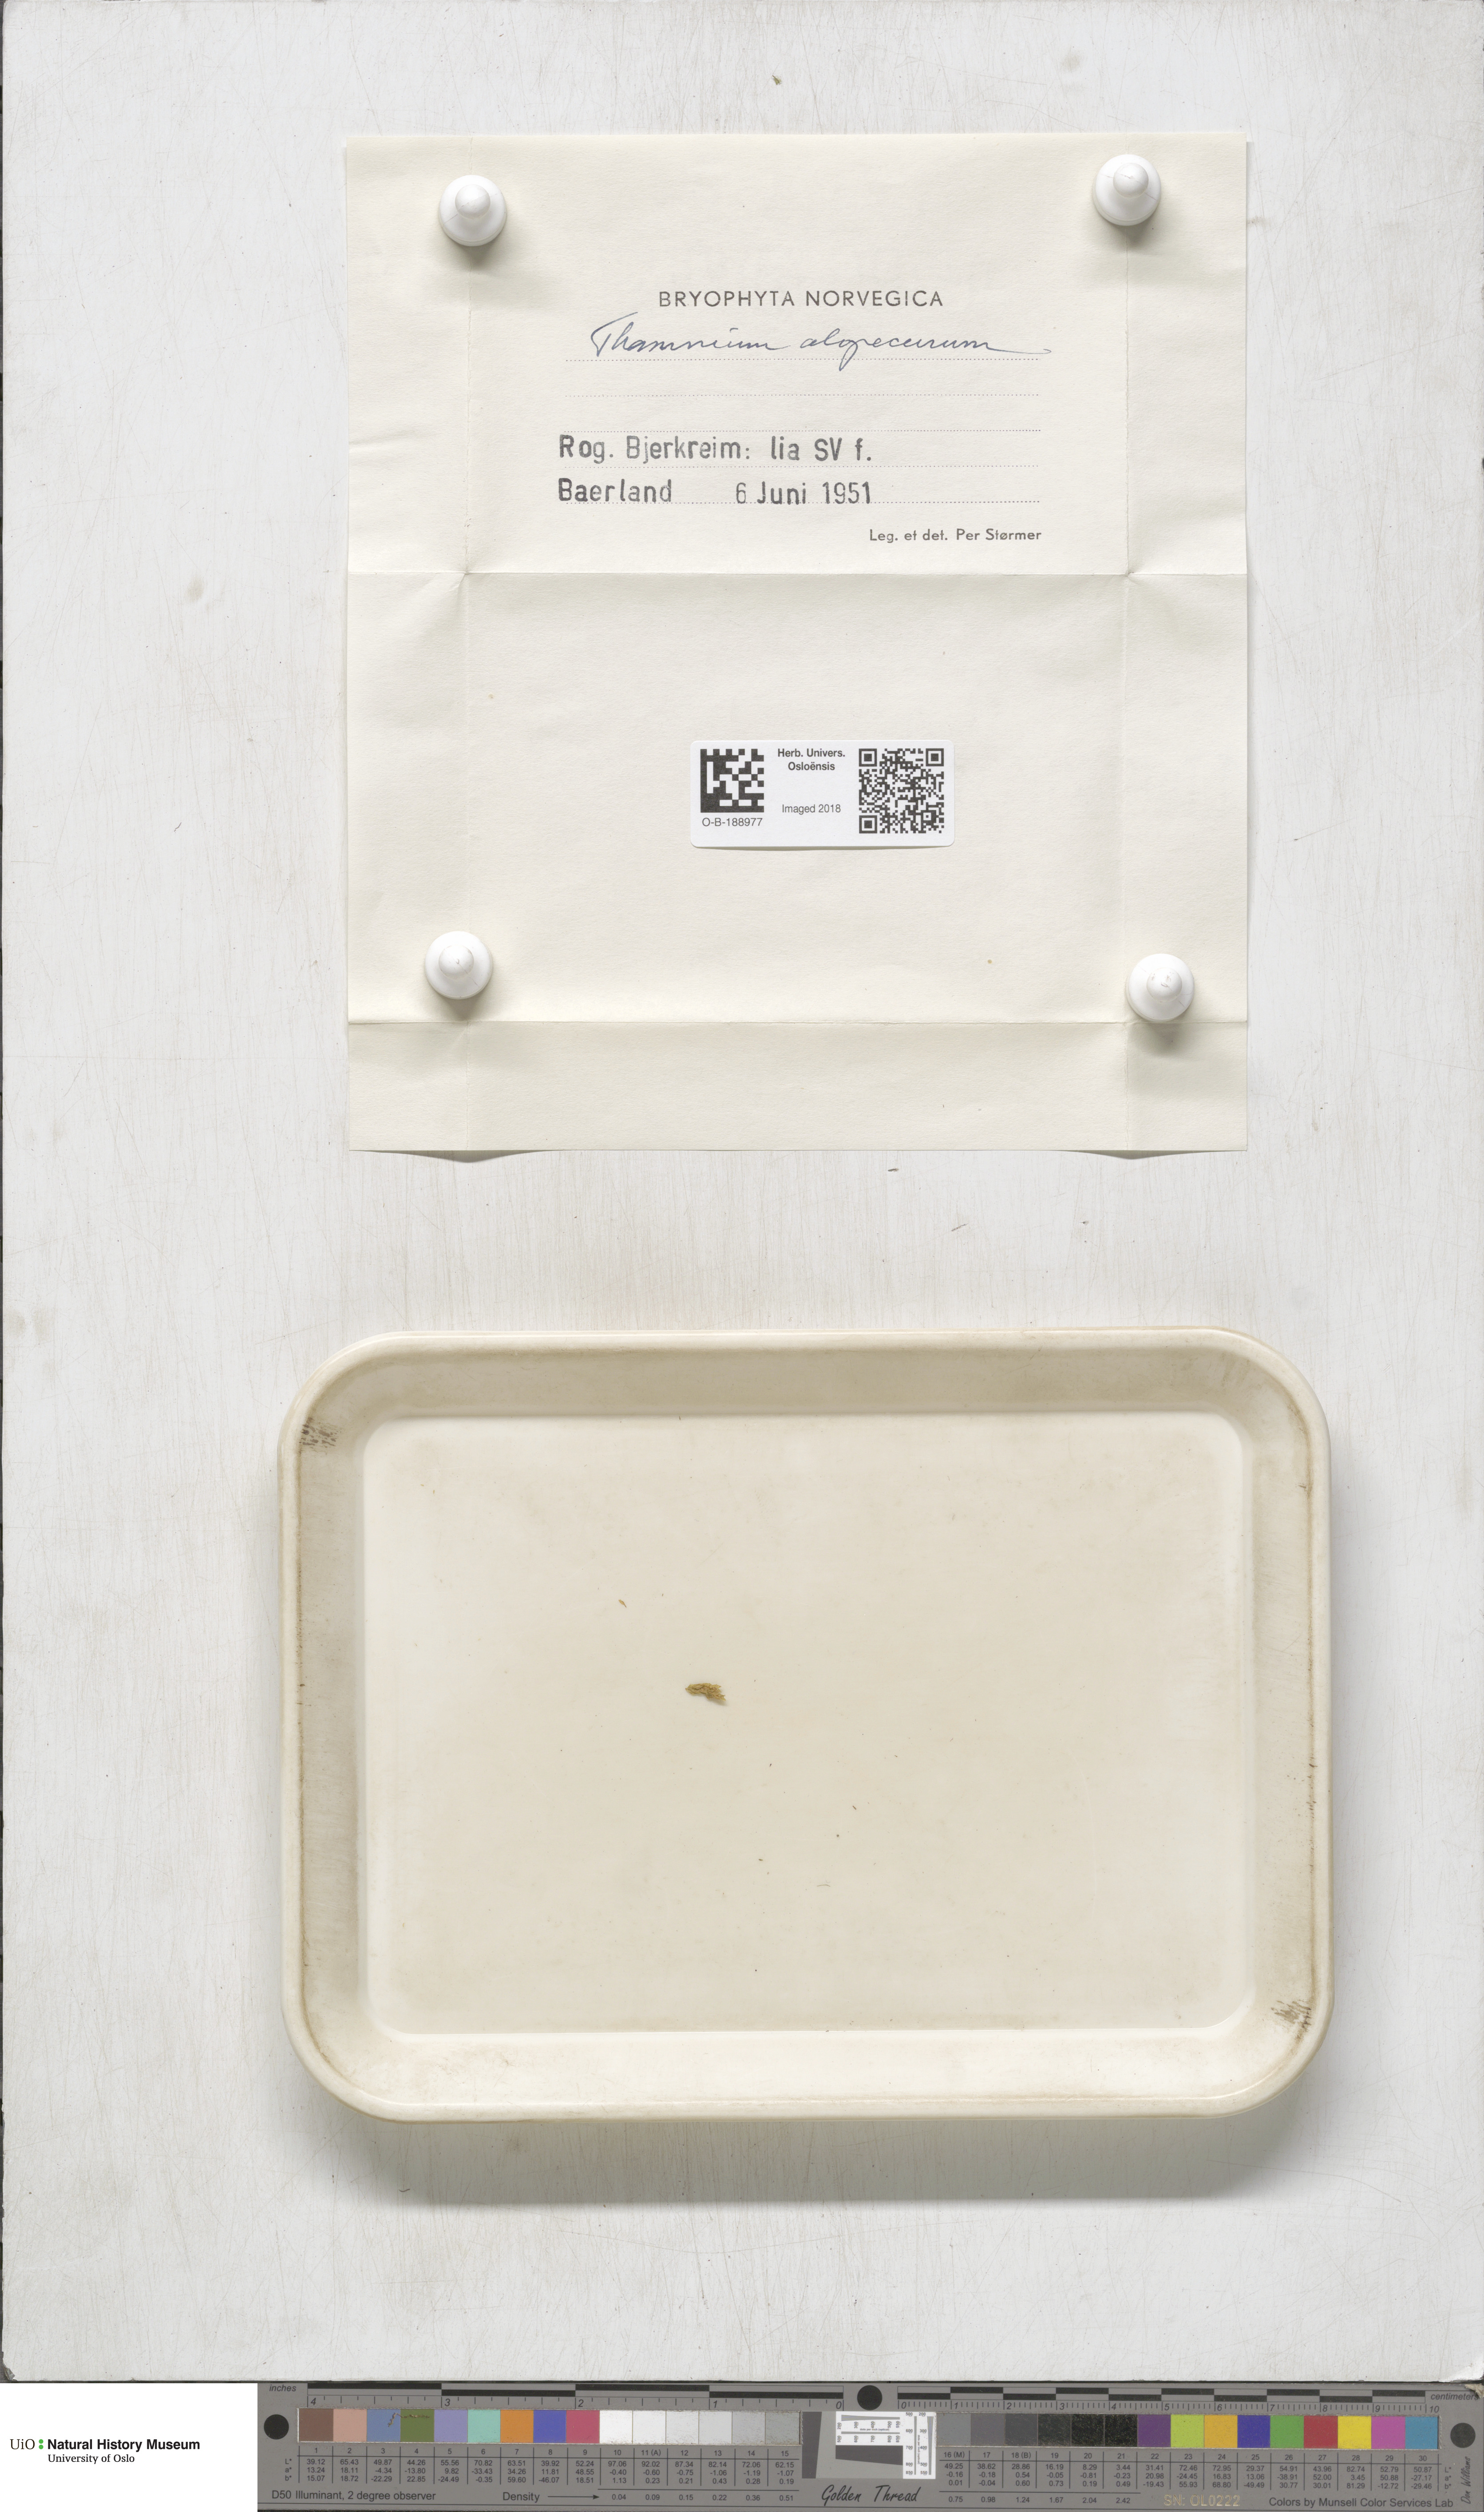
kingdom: Plantae
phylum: Bryophyta
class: Bryopsida
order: Hypnales
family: Neckeraceae
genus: Thamnobryum
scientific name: Thamnobryum alopecurum
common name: Fox-tail feather-moss
